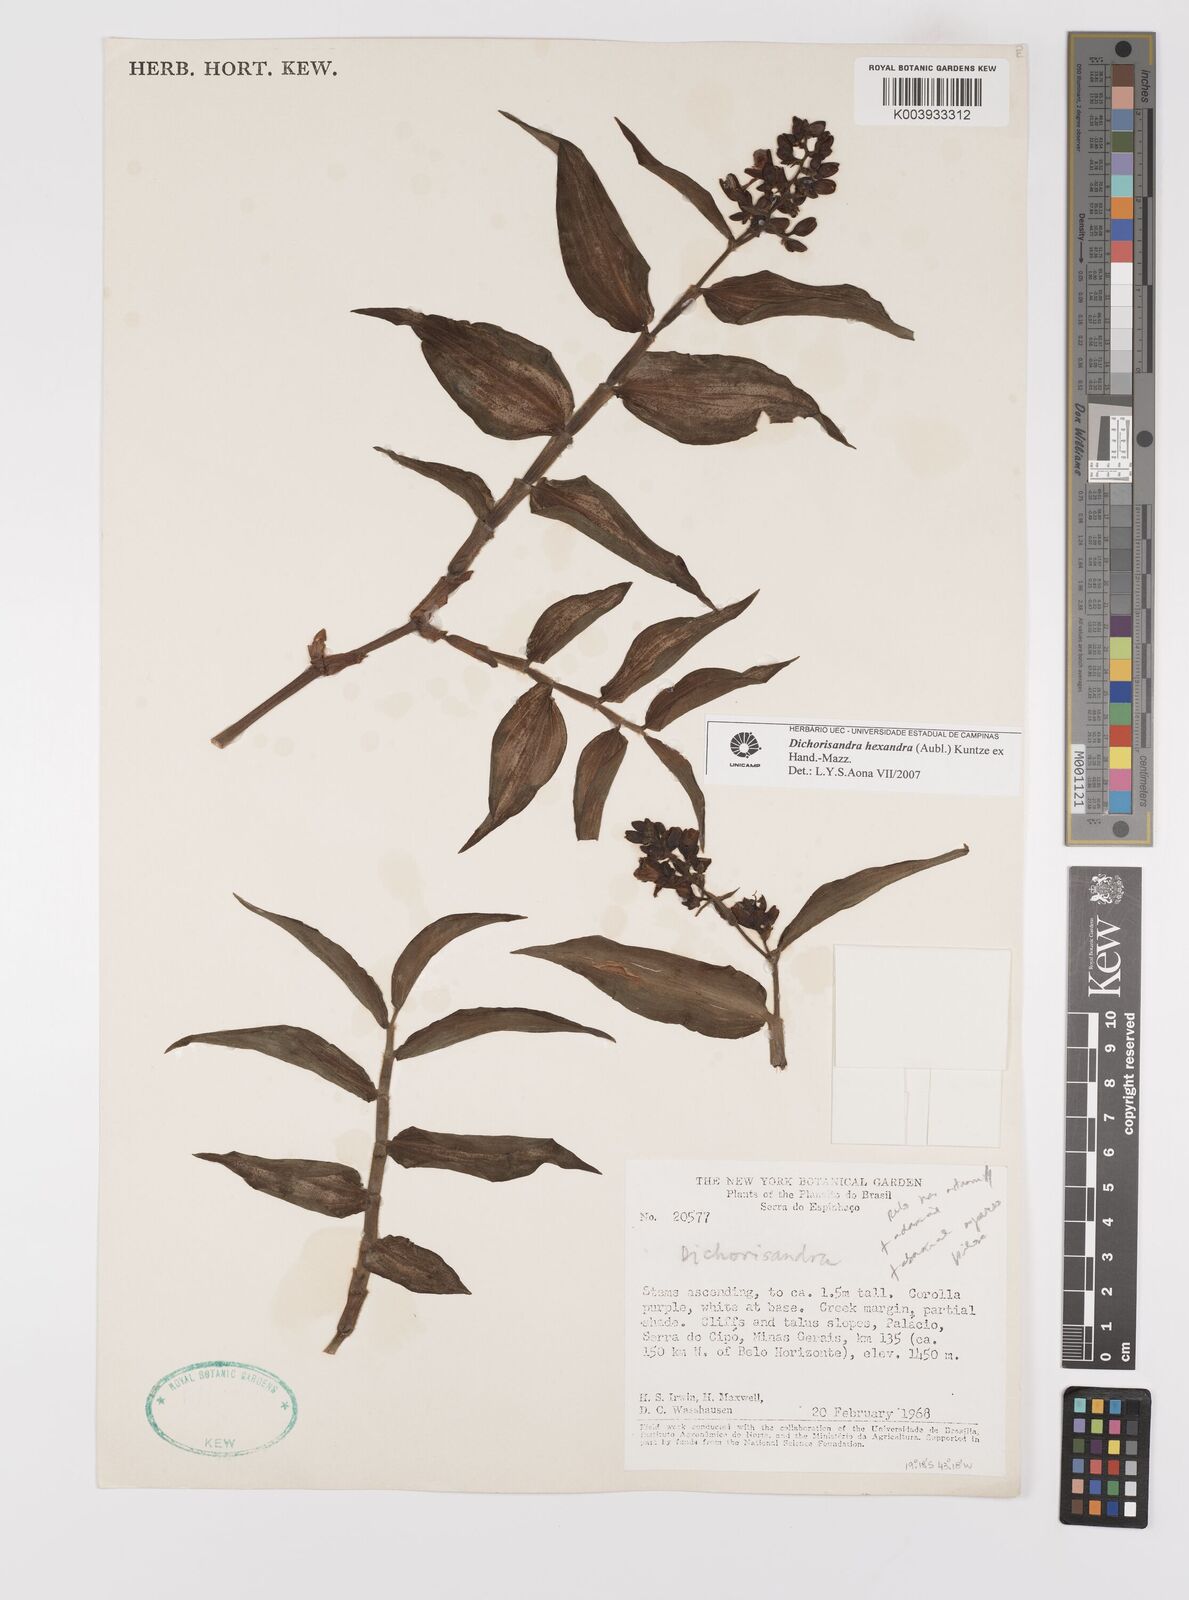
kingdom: Plantae
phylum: Tracheophyta
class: Liliopsida
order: Commelinales
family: Commelinaceae
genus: Dichorisandra
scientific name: Dichorisandra hexandra
